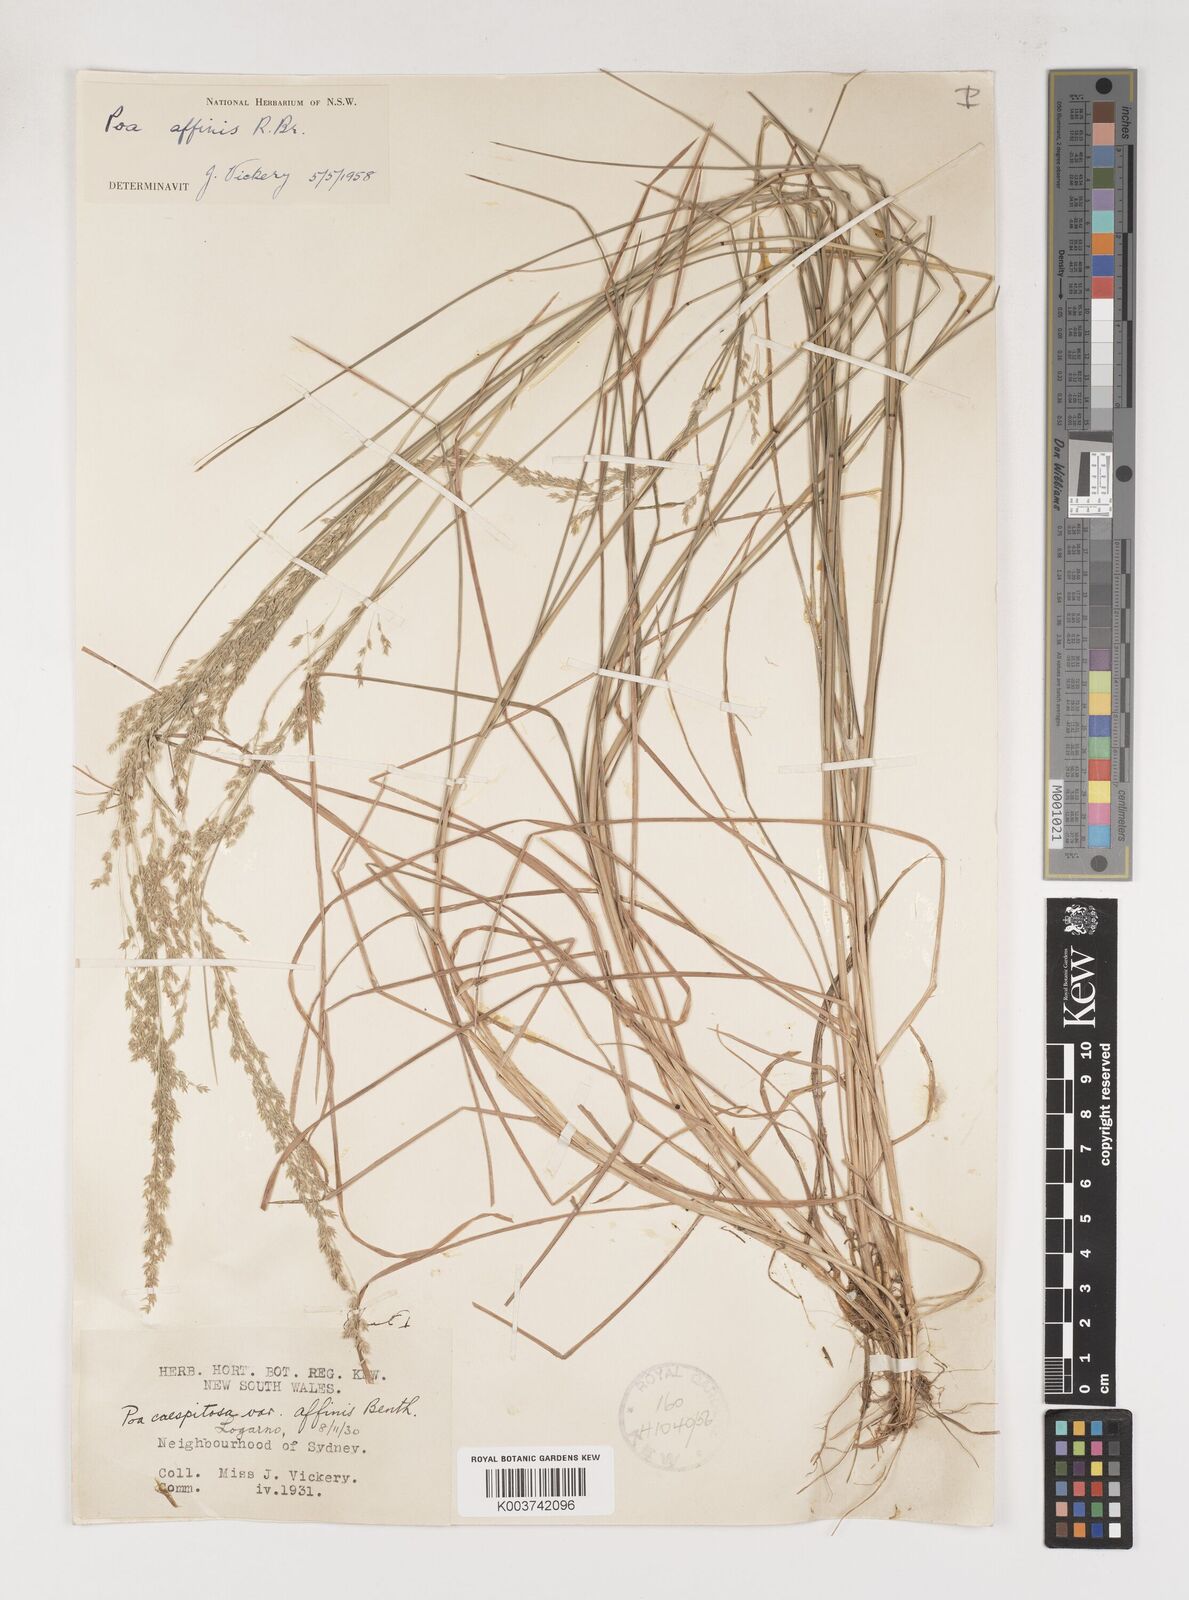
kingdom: Plantae
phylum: Tracheophyta
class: Liliopsida
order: Poales
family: Poaceae
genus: Poa
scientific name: Poa affinis
